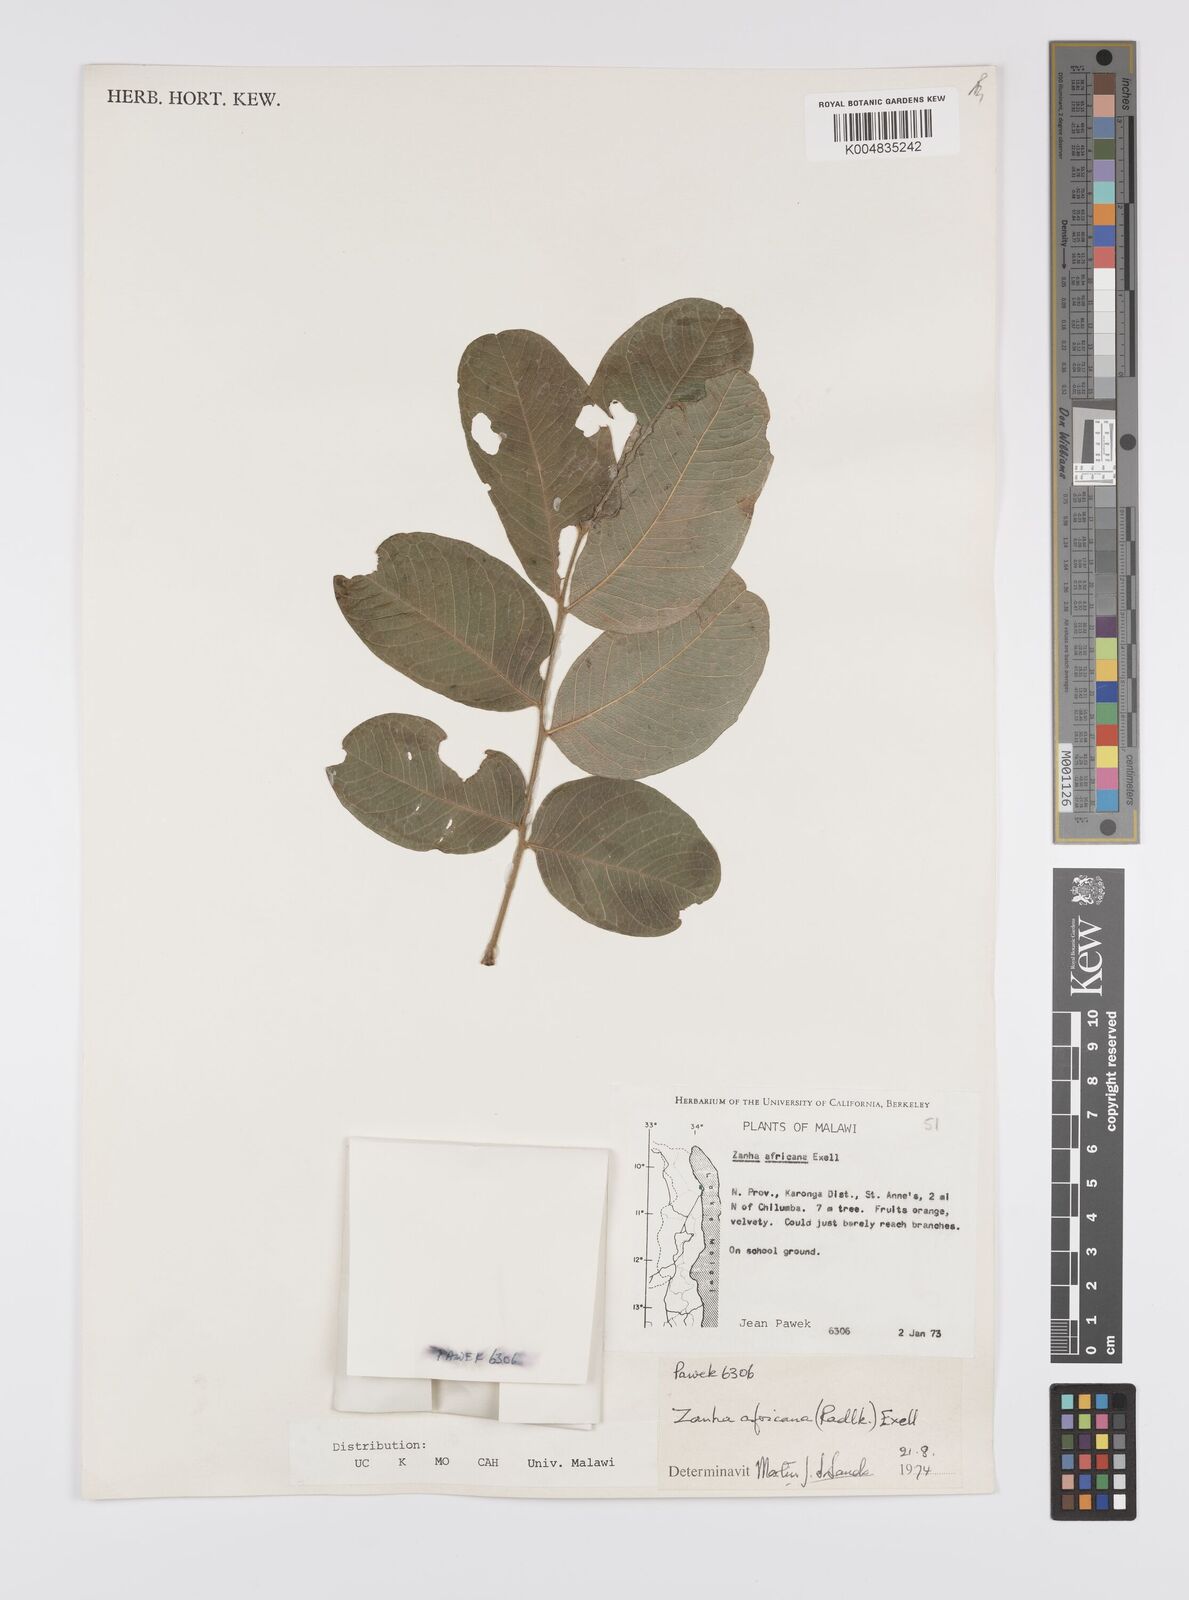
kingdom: Plantae
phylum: Tracheophyta
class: Magnoliopsida
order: Sapindales
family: Sapindaceae
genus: Zanha
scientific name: Zanha africana
